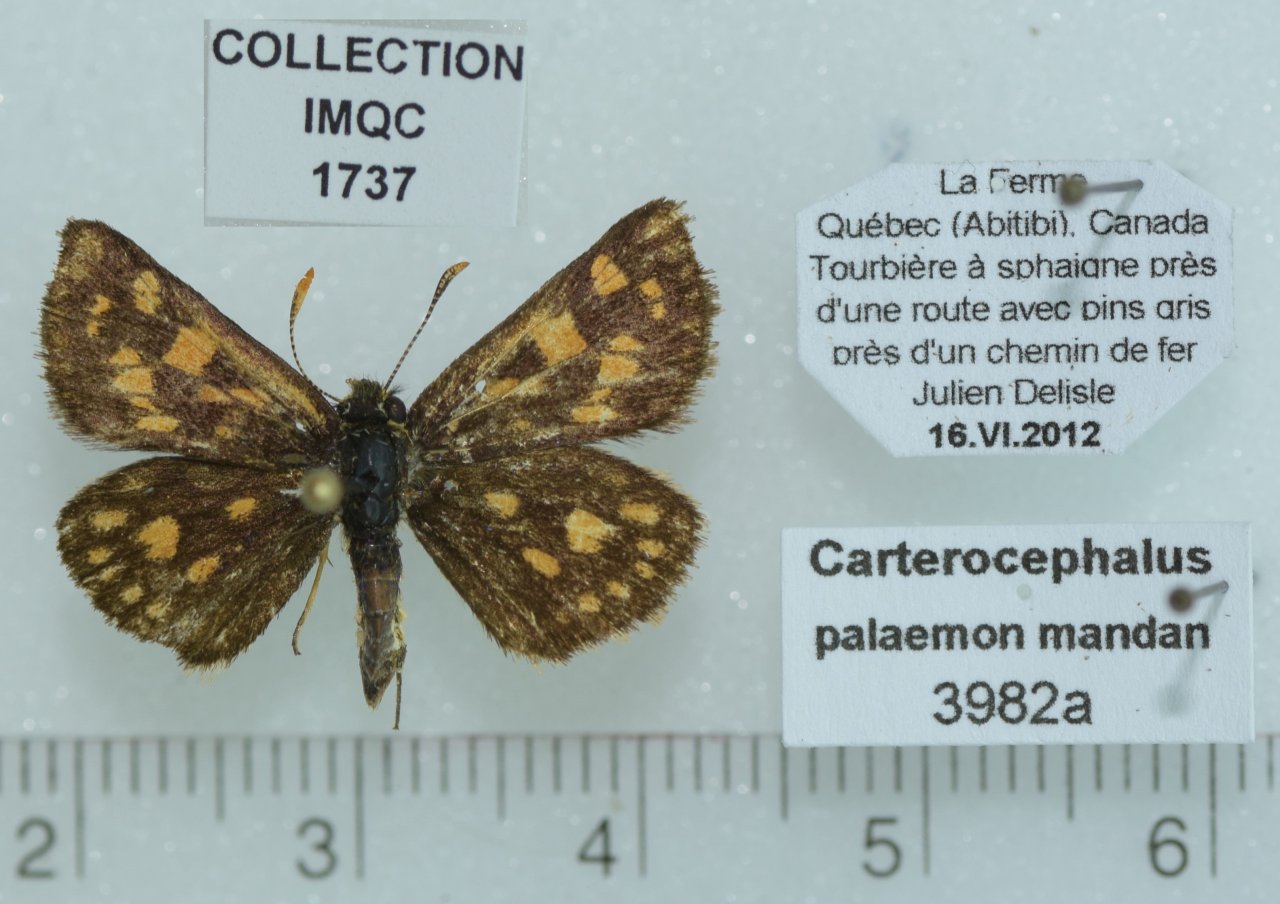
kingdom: Animalia
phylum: Arthropoda
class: Insecta
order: Lepidoptera
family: Hesperiidae
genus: Carterocephalus
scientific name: Carterocephalus palaemon
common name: Chequered Skipper
